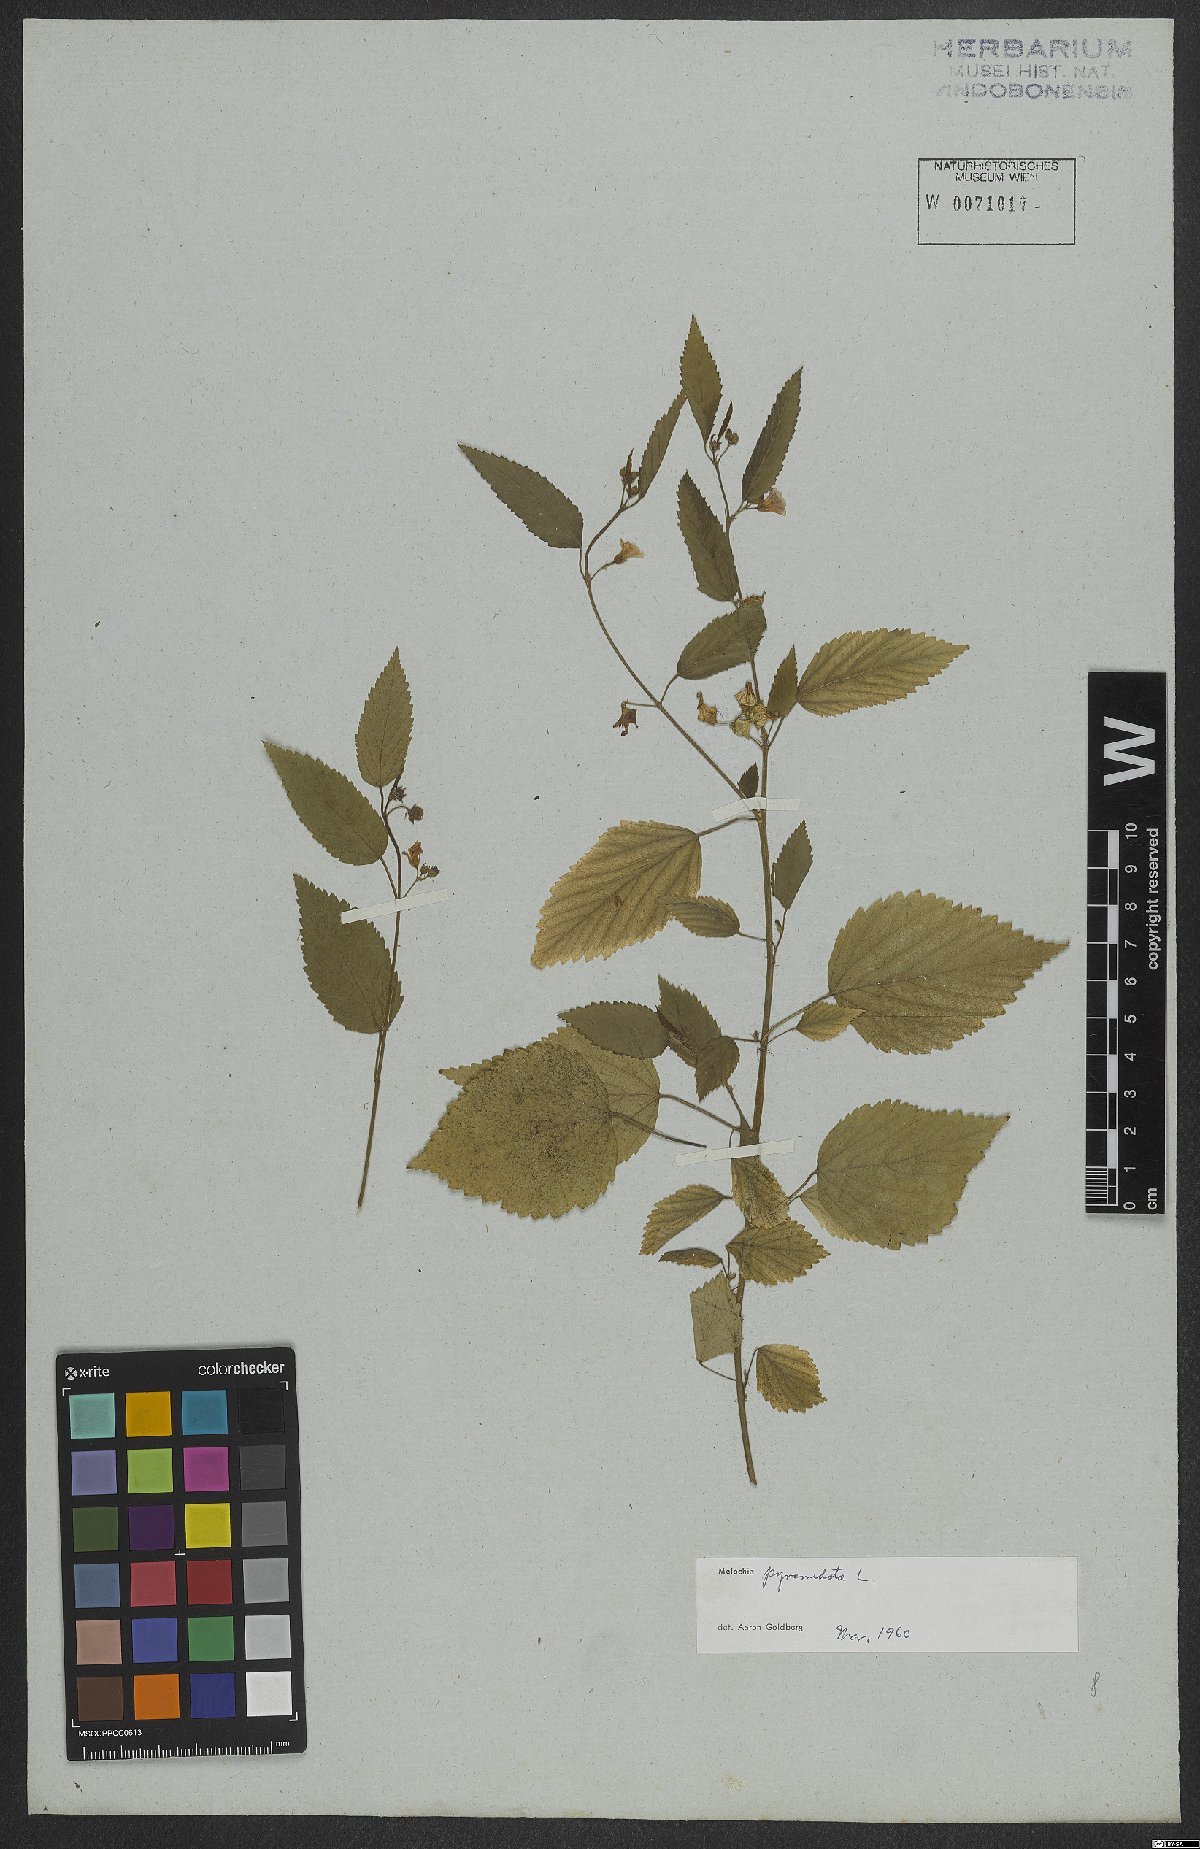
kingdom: Plantae
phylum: Tracheophyta
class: Magnoliopsida
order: Malvales
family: Malvaceae
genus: Melochia
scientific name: Melochia pyramidata
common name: Pyramidflower
